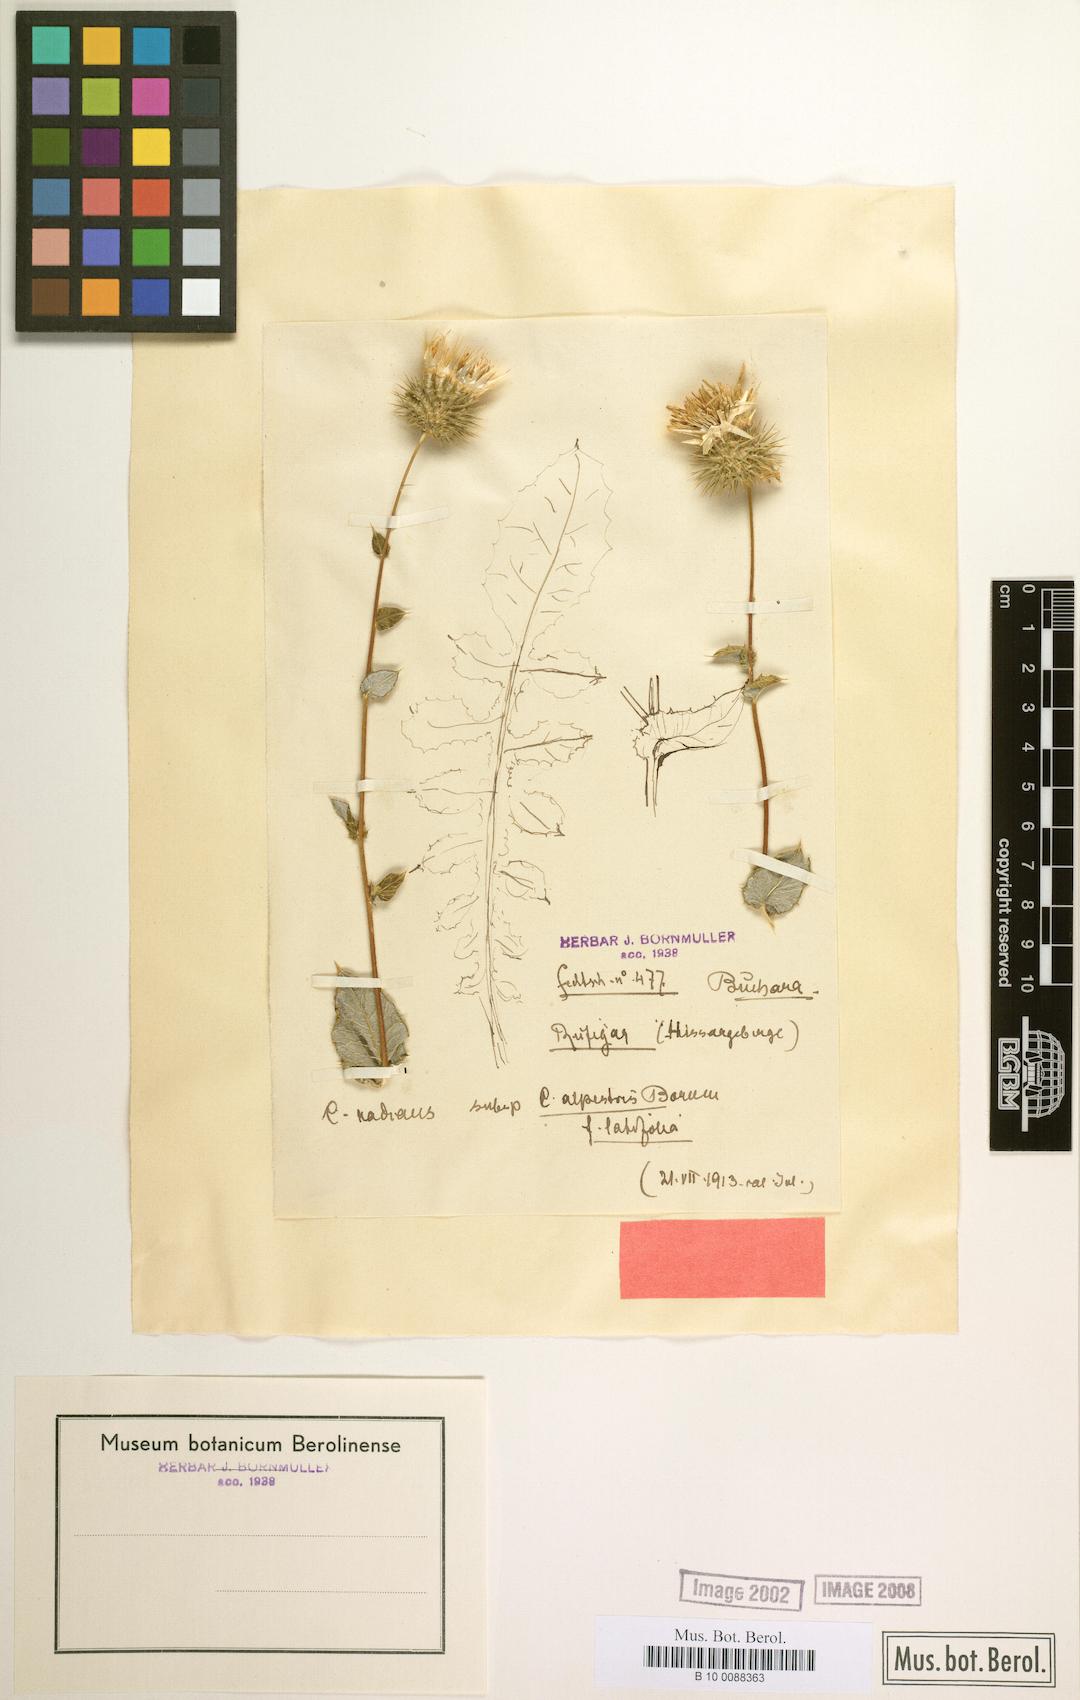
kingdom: Plantae
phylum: Tracheophyta
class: Magnoliopsida
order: Asterales
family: Asteraceae
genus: Cousinia
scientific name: Cousinia alpestris
